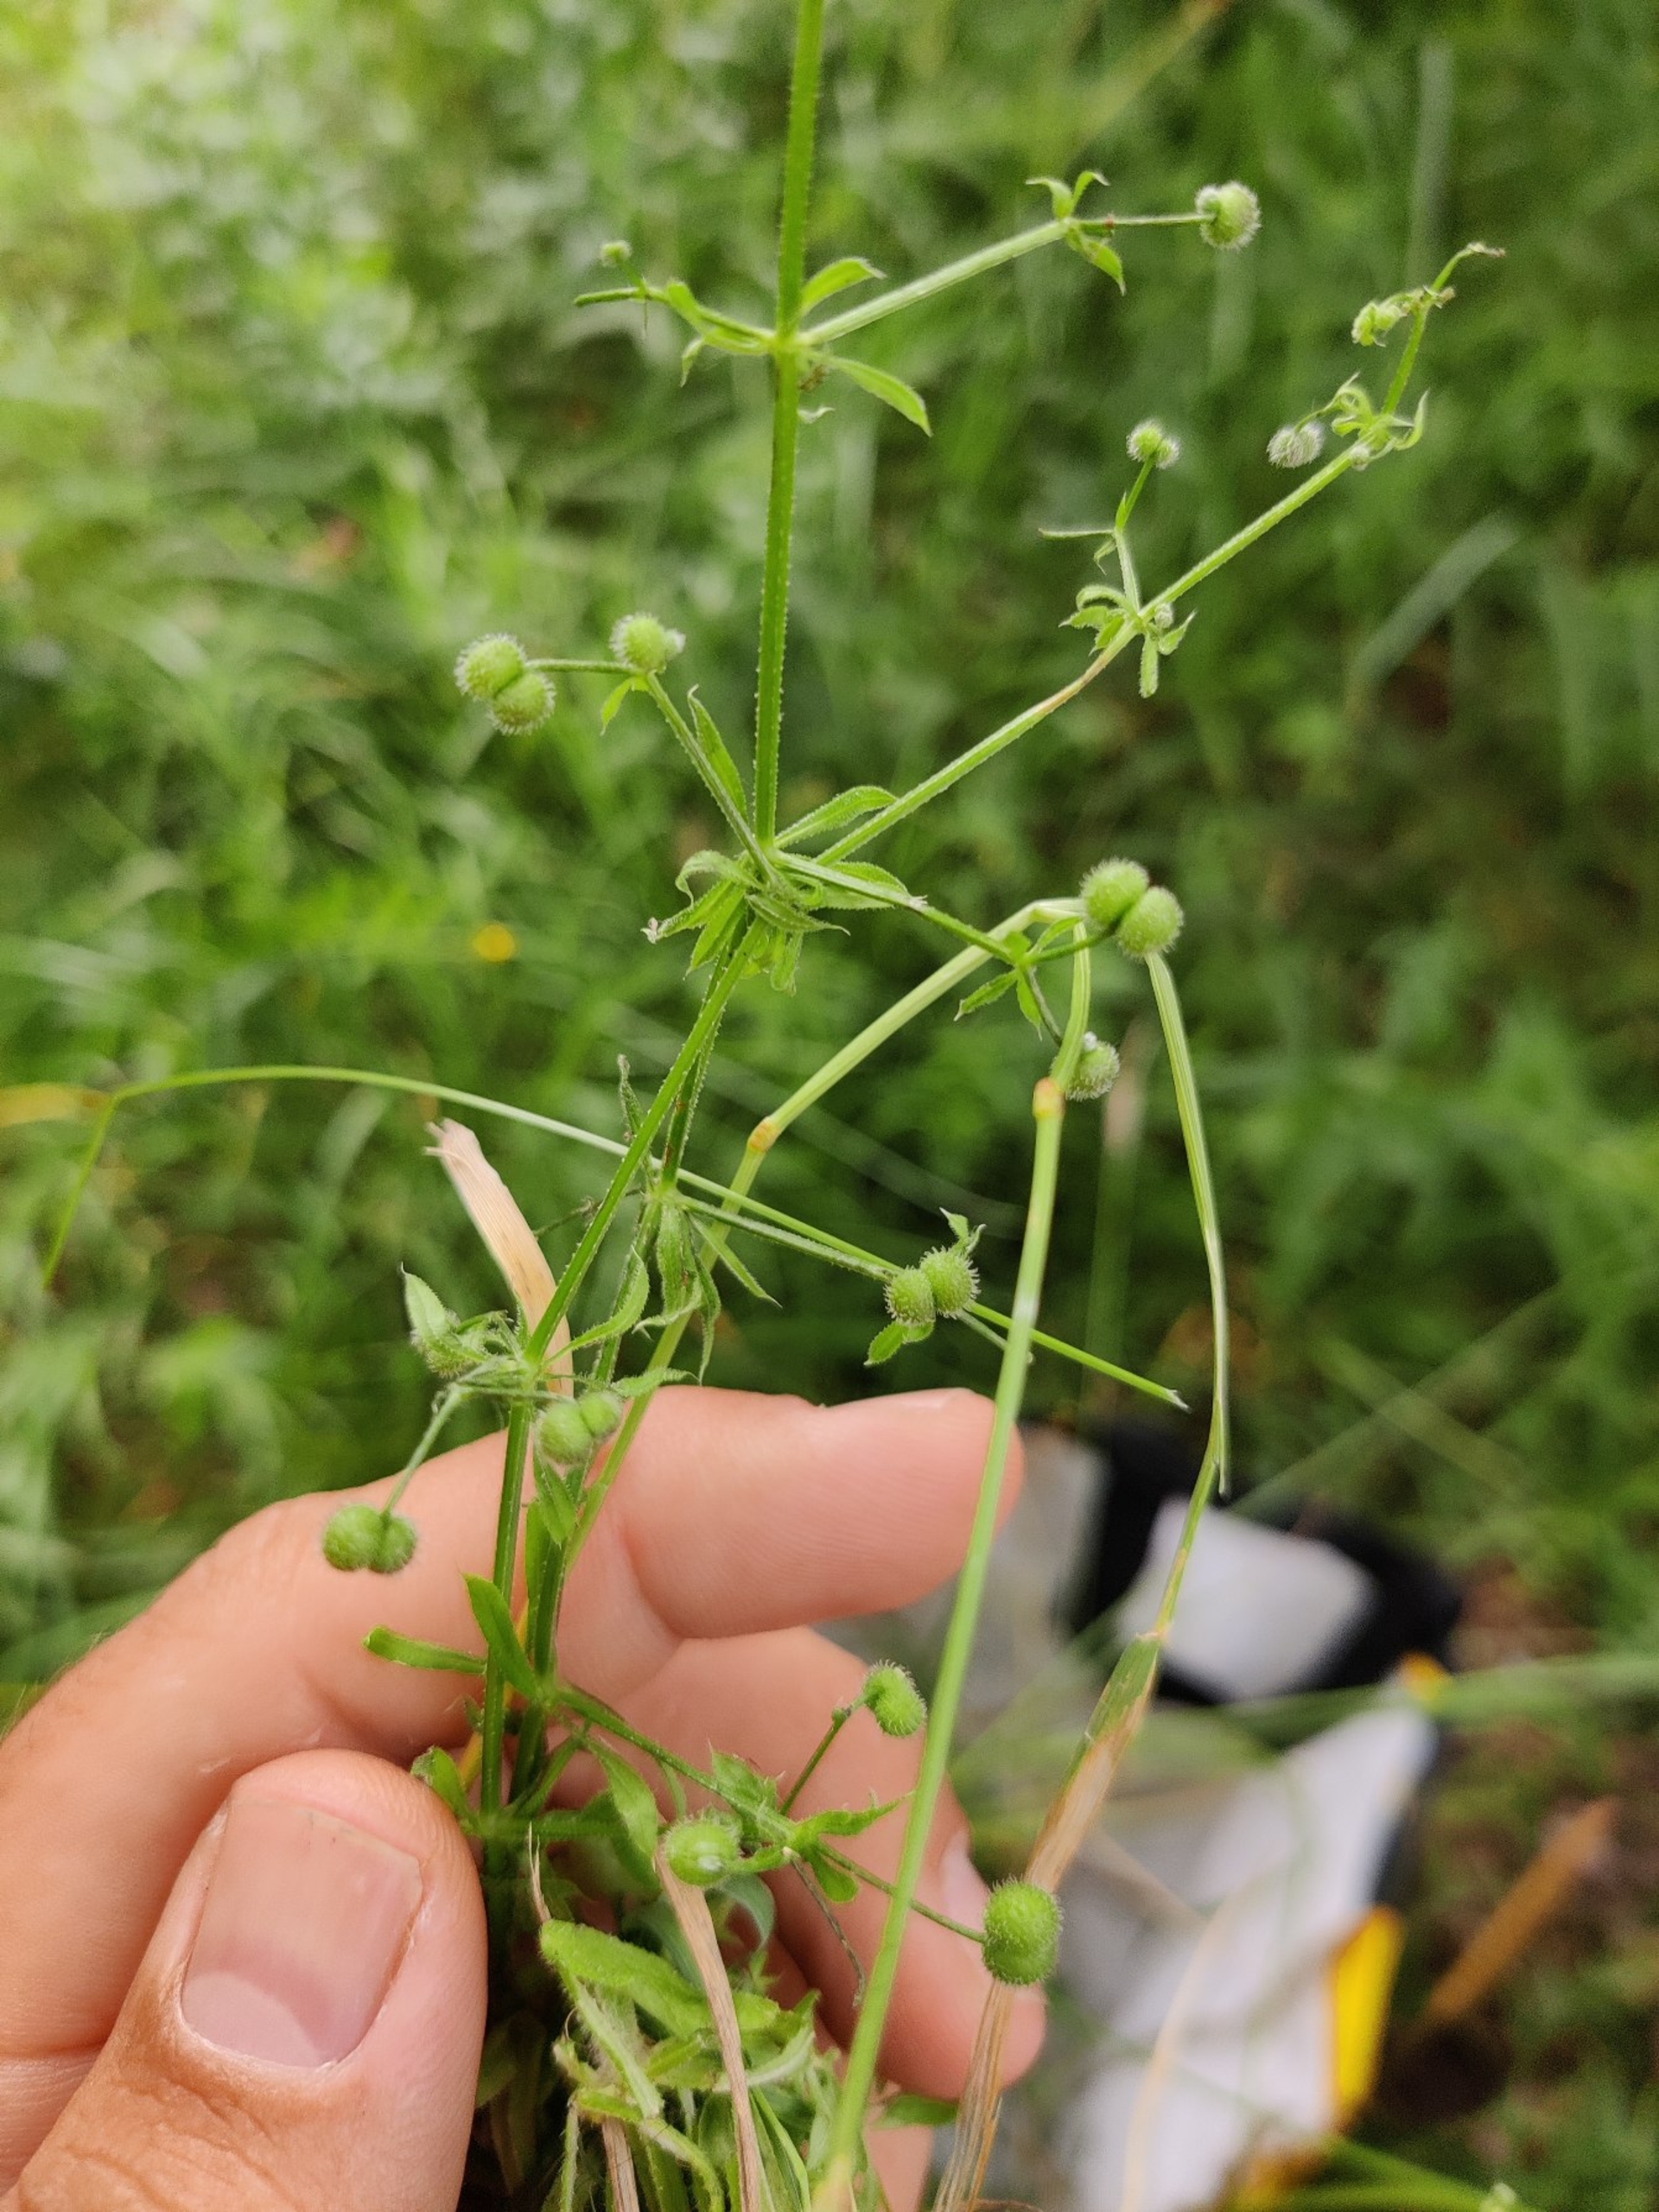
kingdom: Plantae
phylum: Tracheophyta
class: Magnoliopsida
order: Gentianales
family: Rubiaceae
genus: Galium
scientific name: Galium aparine
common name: Burre-snerre
